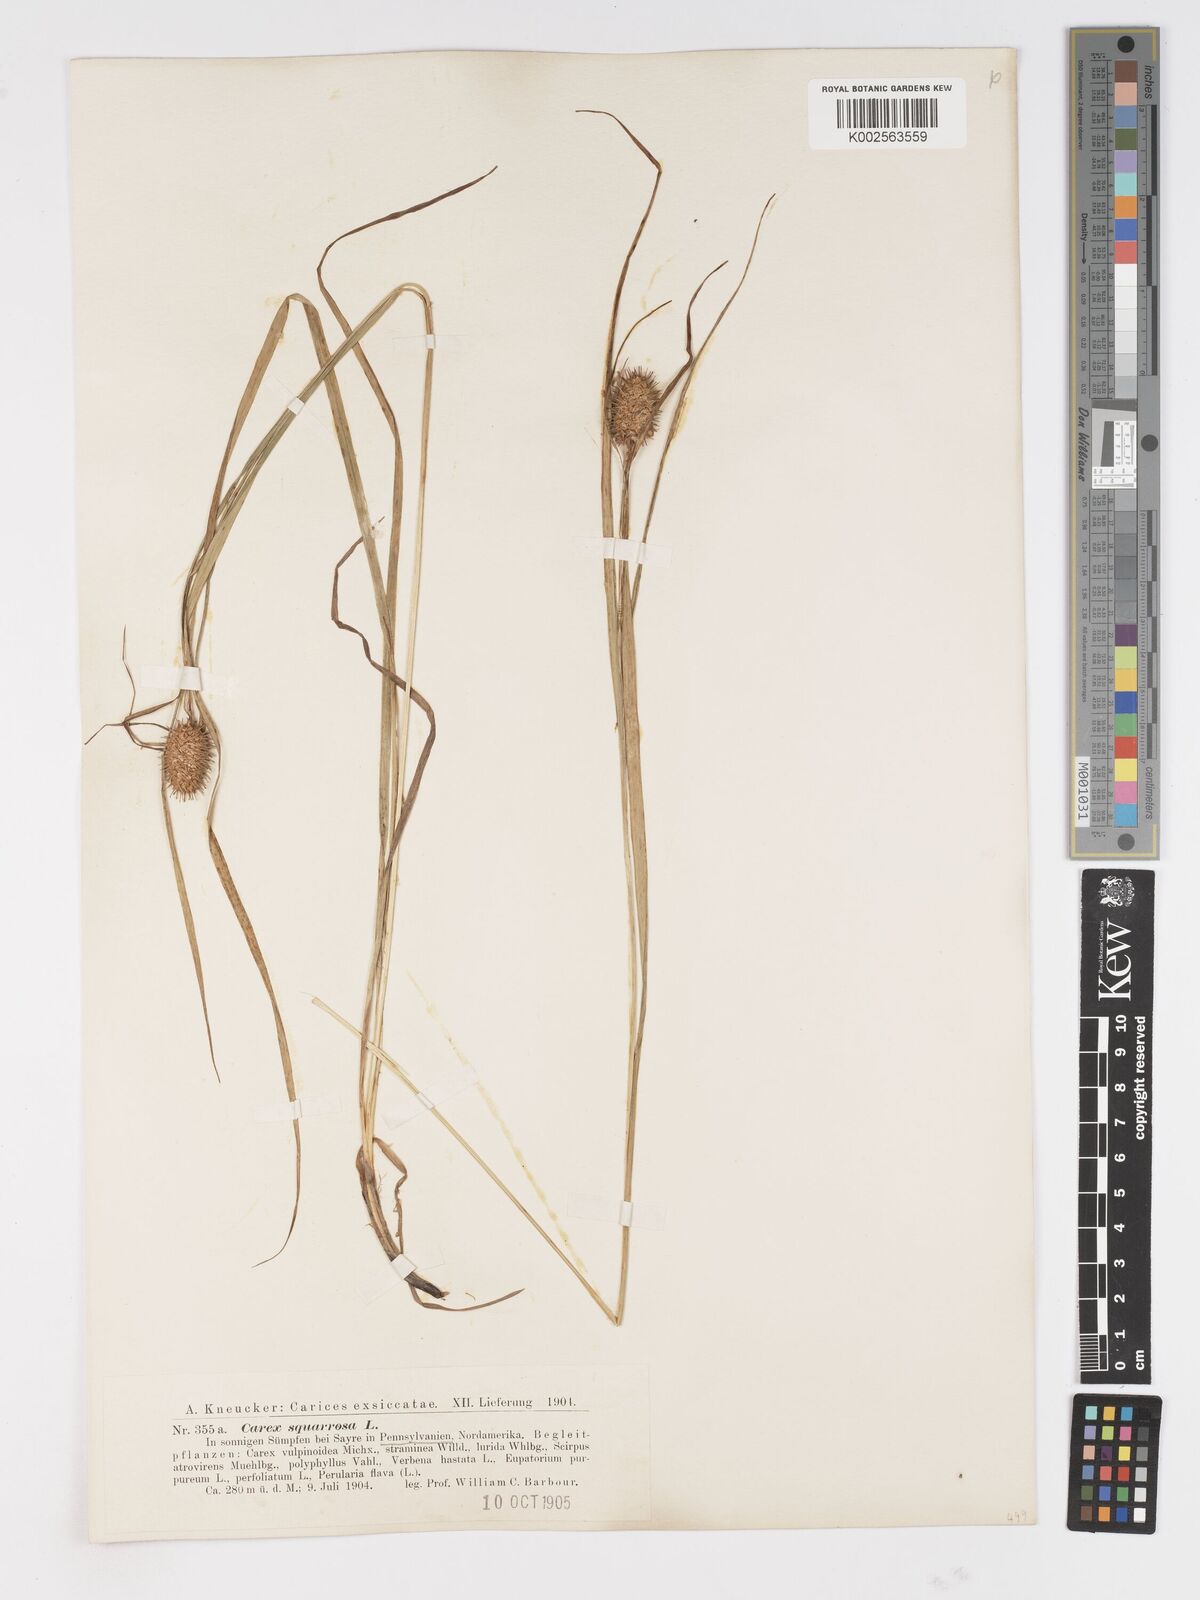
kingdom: Plantae
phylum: Tracheophyta
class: Liliopsida
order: Poales
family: Cyperaceae
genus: Carex
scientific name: Carex squarrosa
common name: Narrow-leaved cattail sedge
